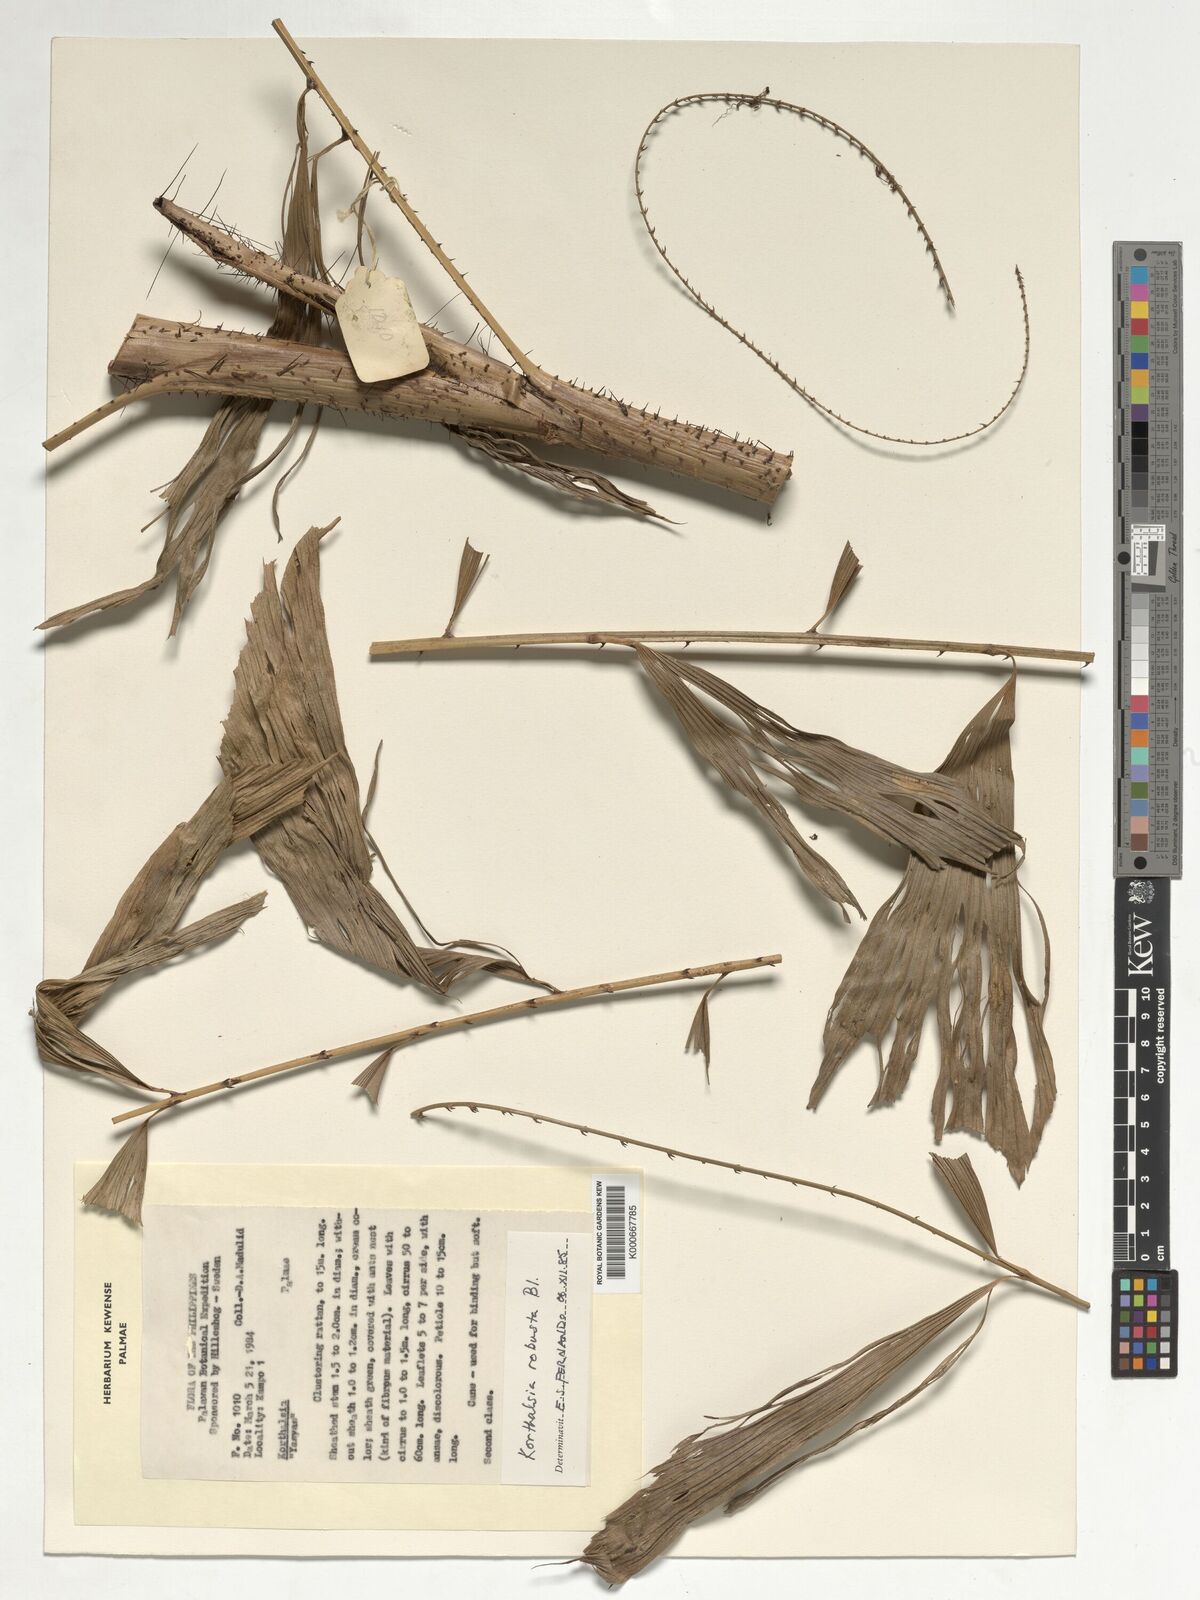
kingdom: Plantae
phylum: Tracheophyta
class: Liliopsida
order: Arecales
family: Arecaceae
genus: Korthalsia
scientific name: Korthalsia robusta
